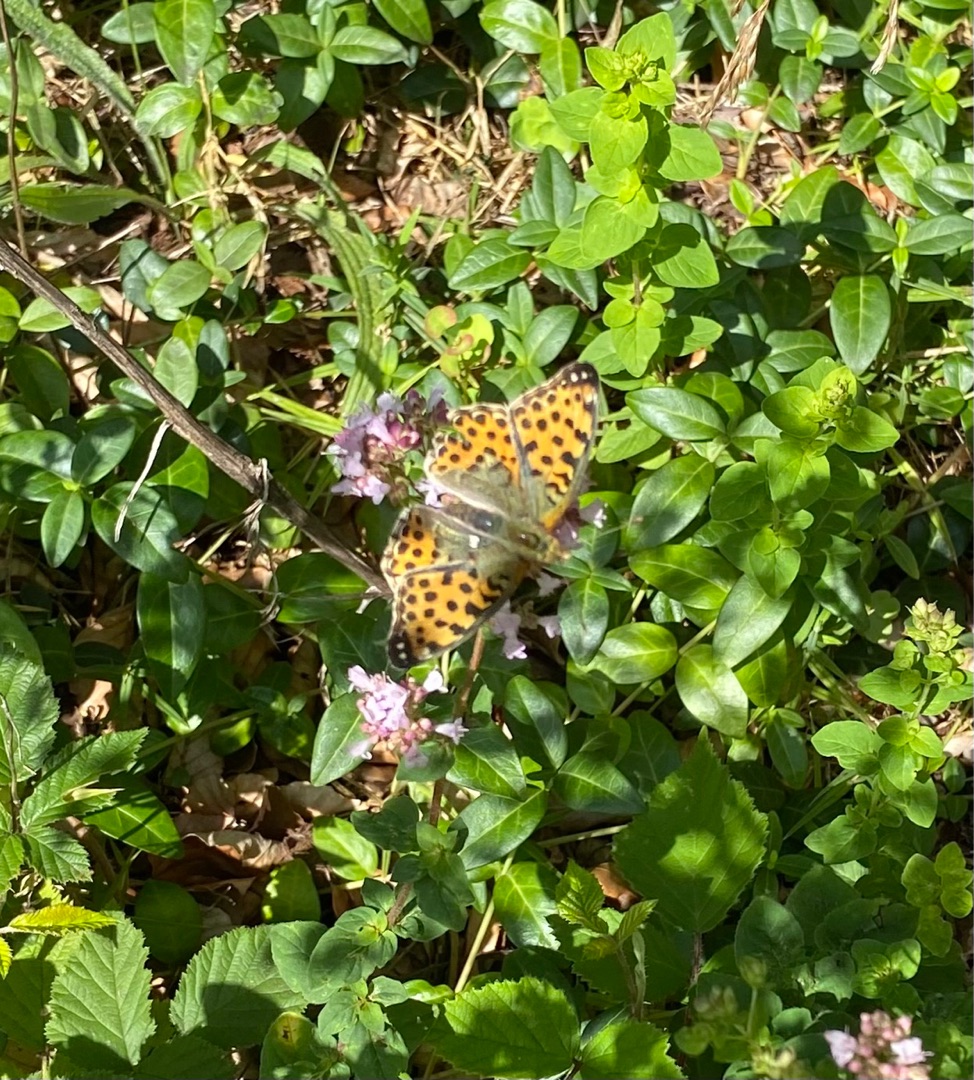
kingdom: Animalia
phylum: Arthropoda
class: Insecta
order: Lepidoptera
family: Nymphalidae
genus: Issoria
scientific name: Issoria lathonia
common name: Storplettet perlemorsommerfugl
